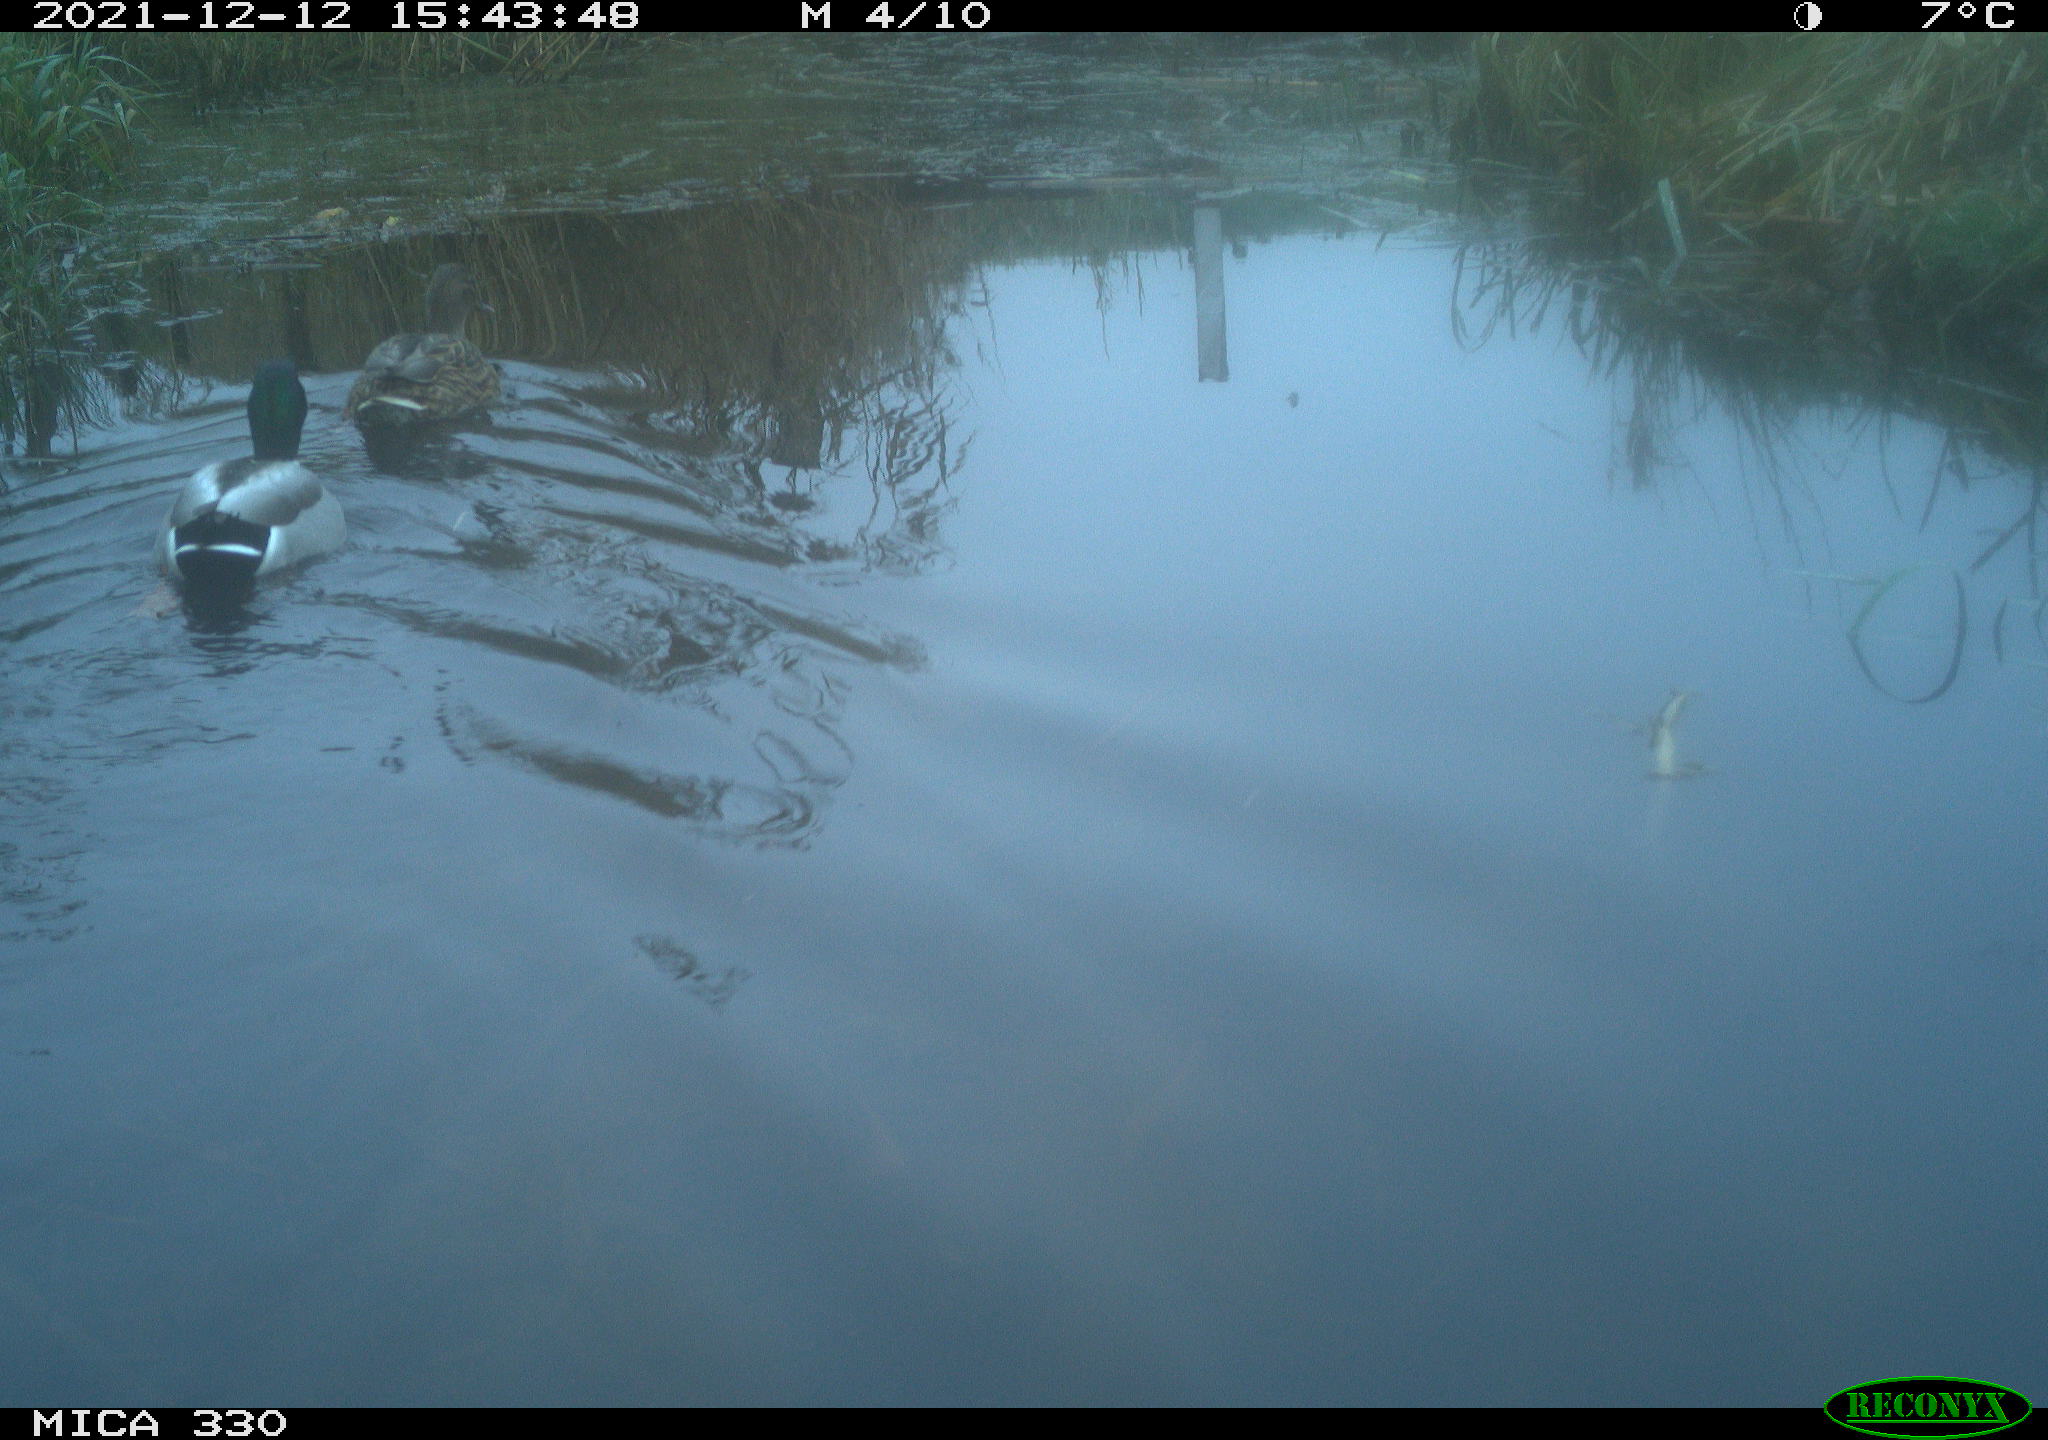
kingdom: Animalia
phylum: Chordata
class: Aves
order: Anseriformes
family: Anatidae
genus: Anas
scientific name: Anas platyrhynchos
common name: Mallard
